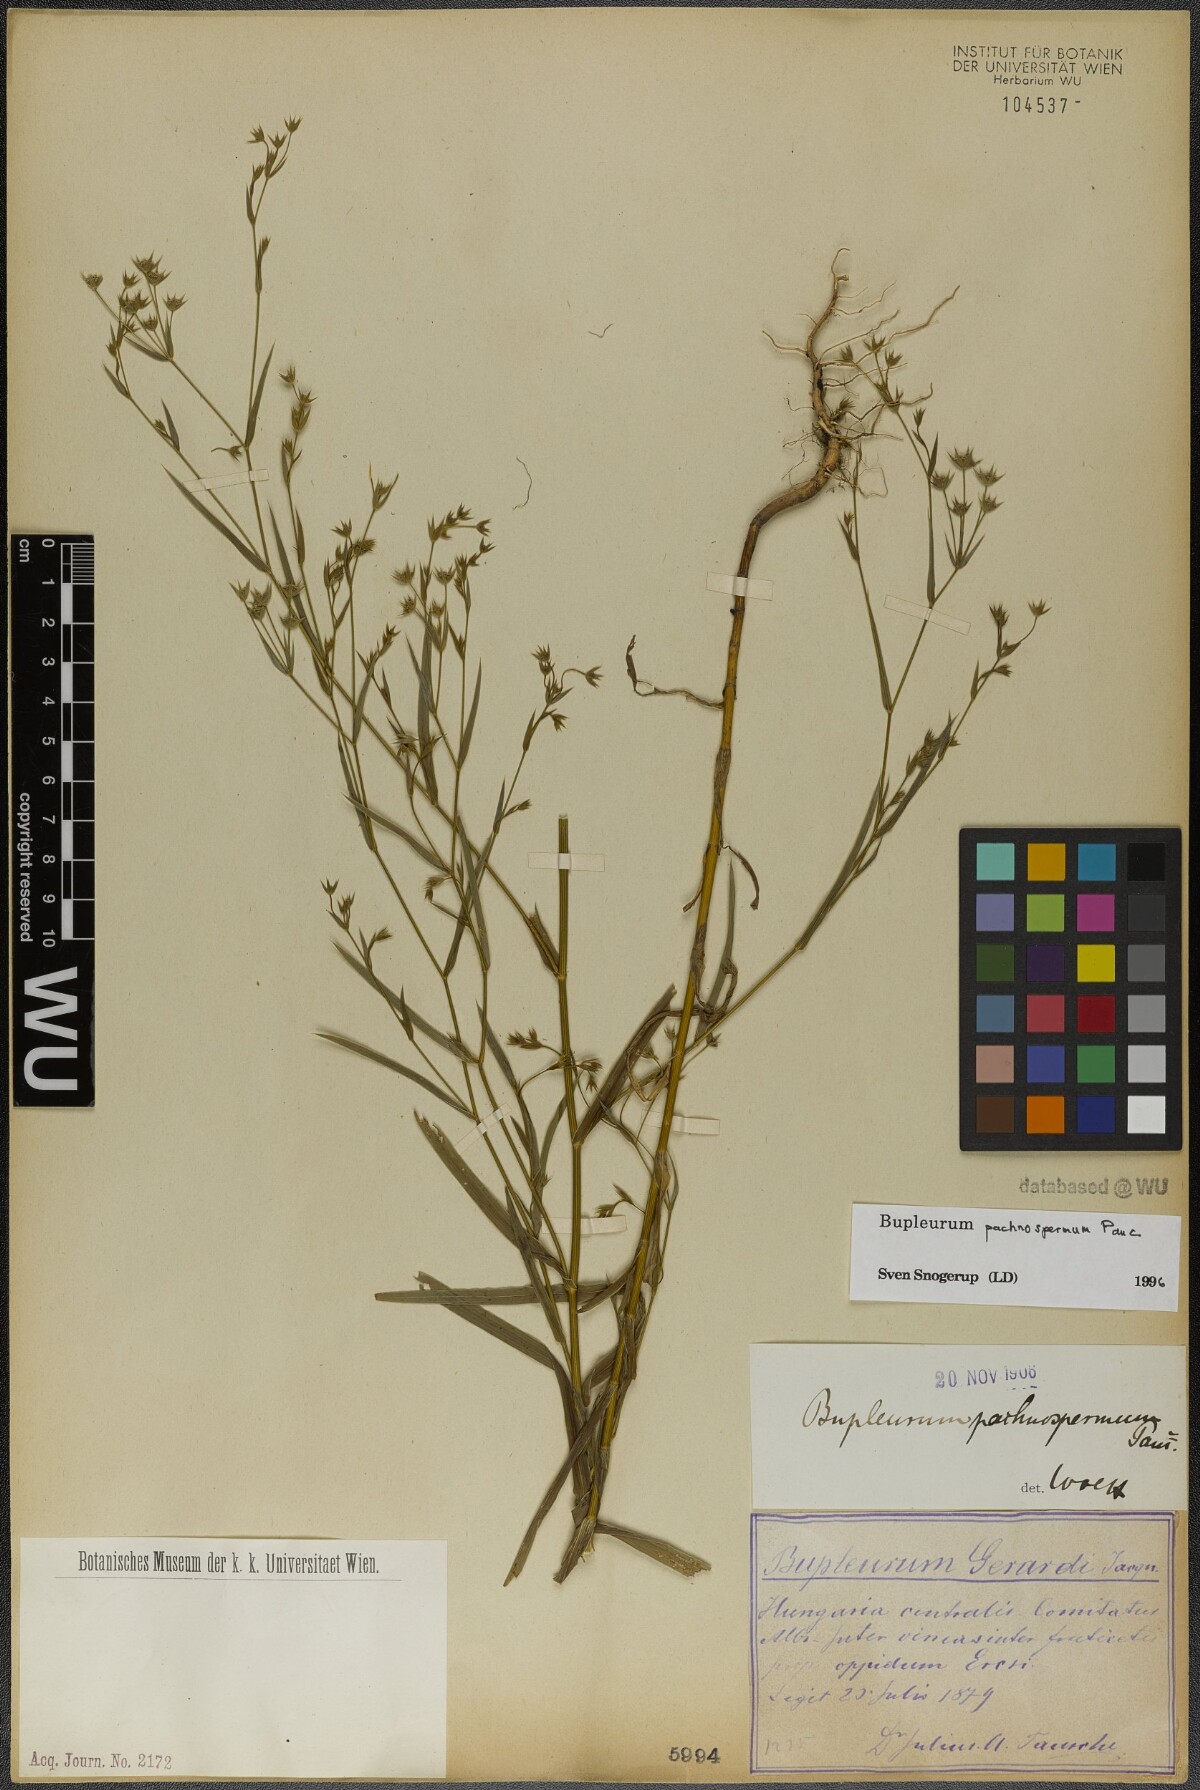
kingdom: Plantae
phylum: Tracheophyta
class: Magnoliopsida
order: Apiales
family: Apiaceae
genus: Bupleurum
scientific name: Bupleurum pachnospermum
